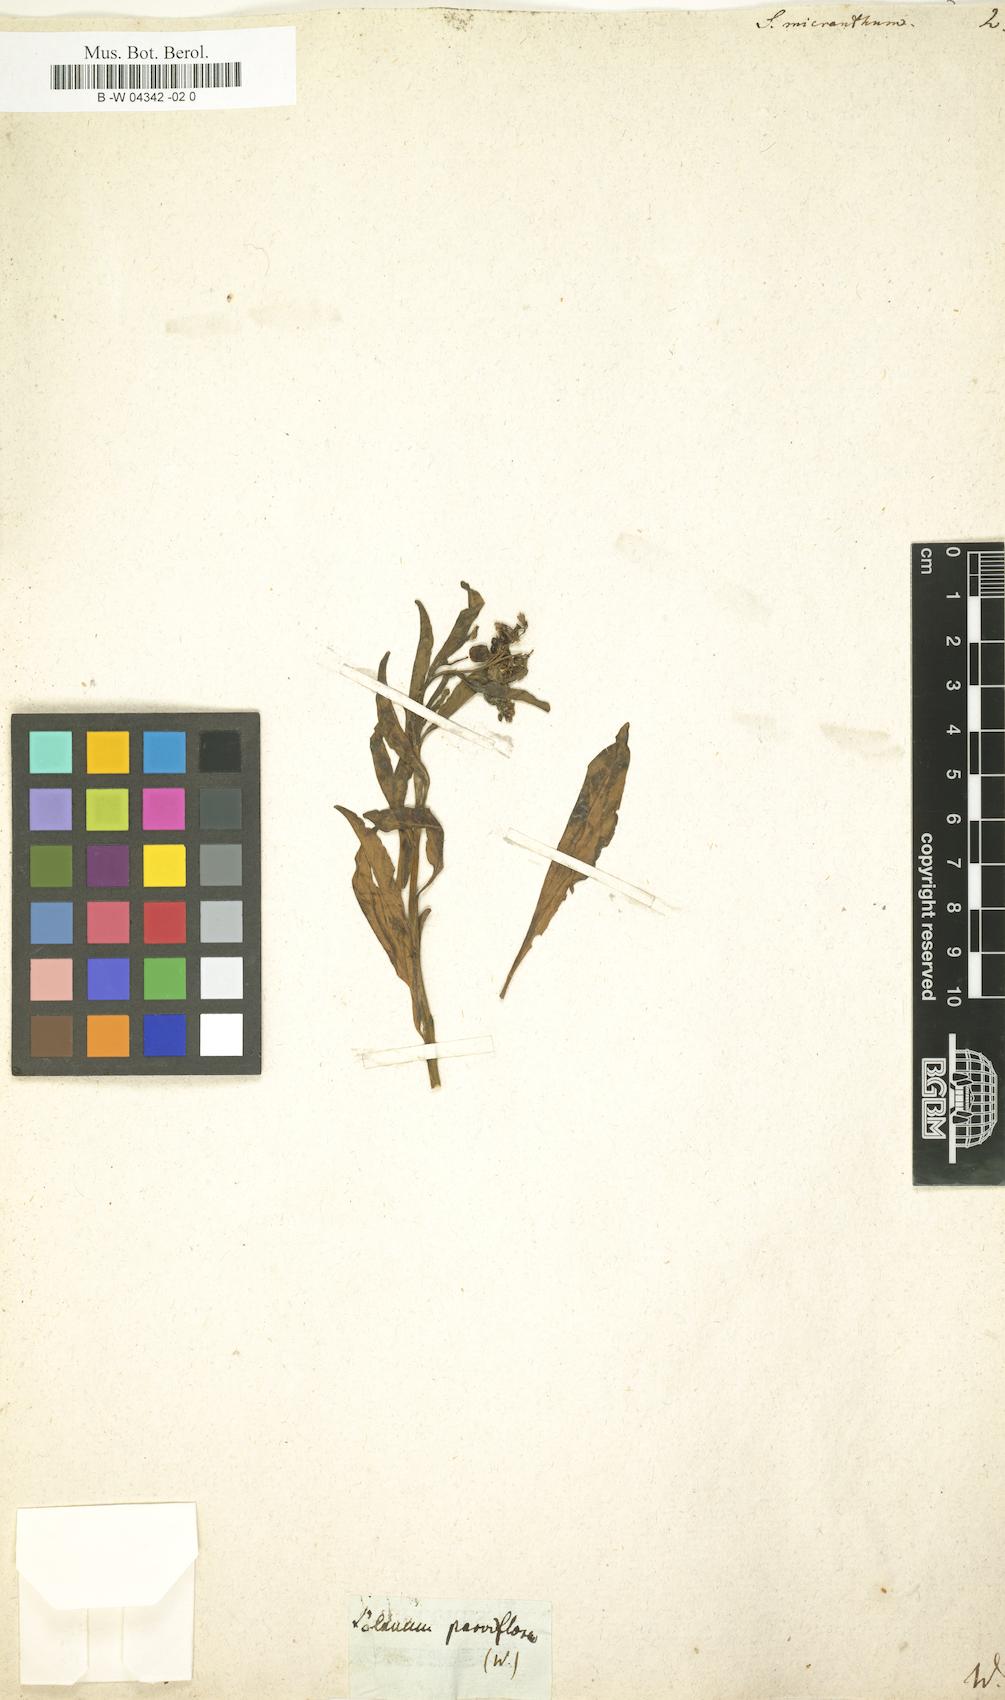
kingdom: Plantae
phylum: Tracheophyta
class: Magnoliopsida
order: Solanales
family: Solanaceae
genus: Solanum
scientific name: Solanum nudum
